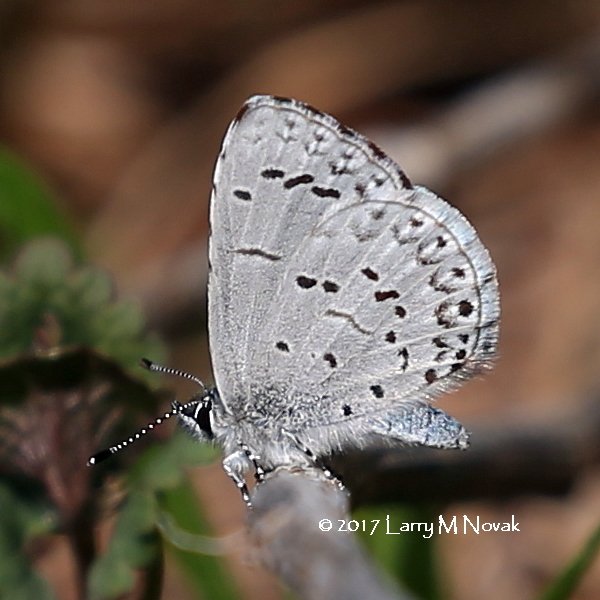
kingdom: Animalia
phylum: Arthropoda
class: Insecta
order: Lepidoptera
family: Lycaenidae
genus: Celastrina
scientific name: Celastrina lucia
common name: Northern Spring Azure
